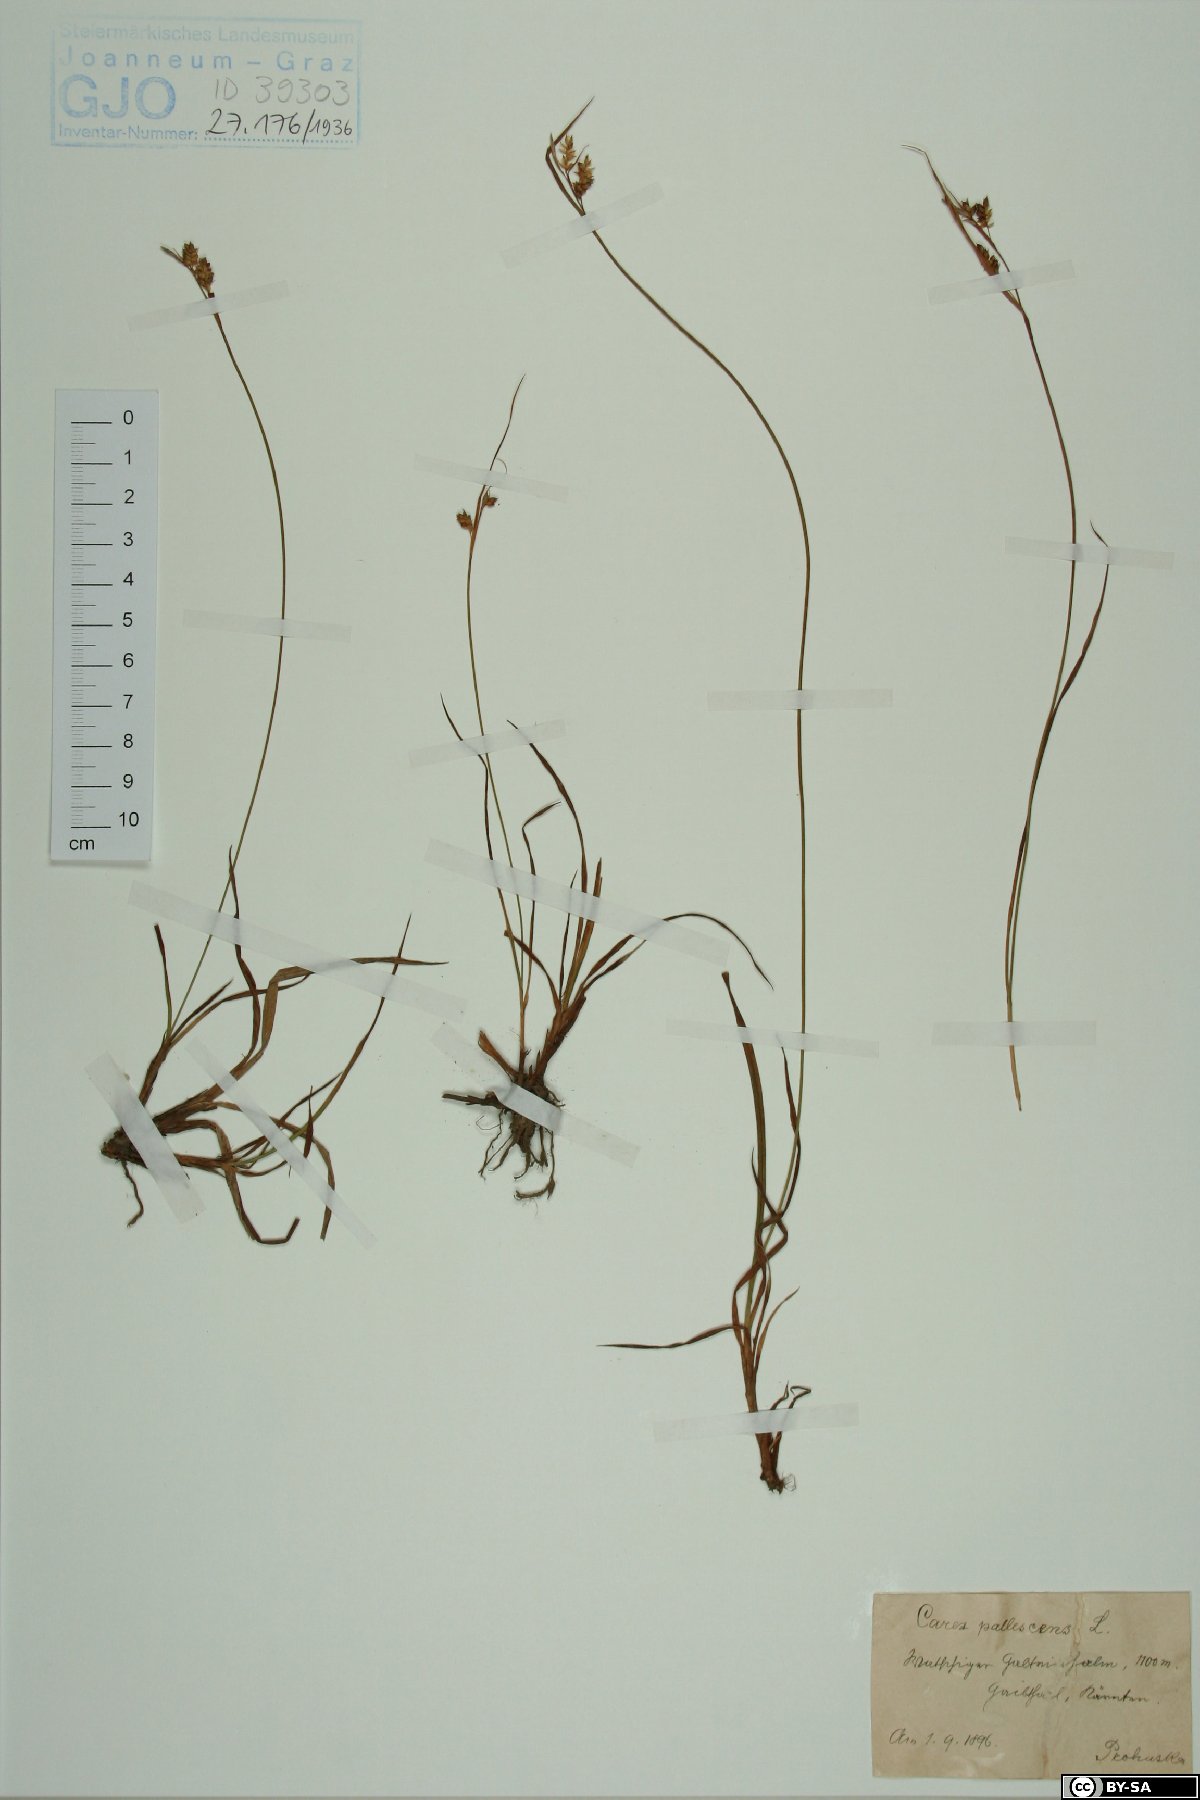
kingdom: Plantae
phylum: Tracheophyta
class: Liliopsida
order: Poales
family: Cyperaceae
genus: Carex
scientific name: Carex pallescens
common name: Pale sedge
